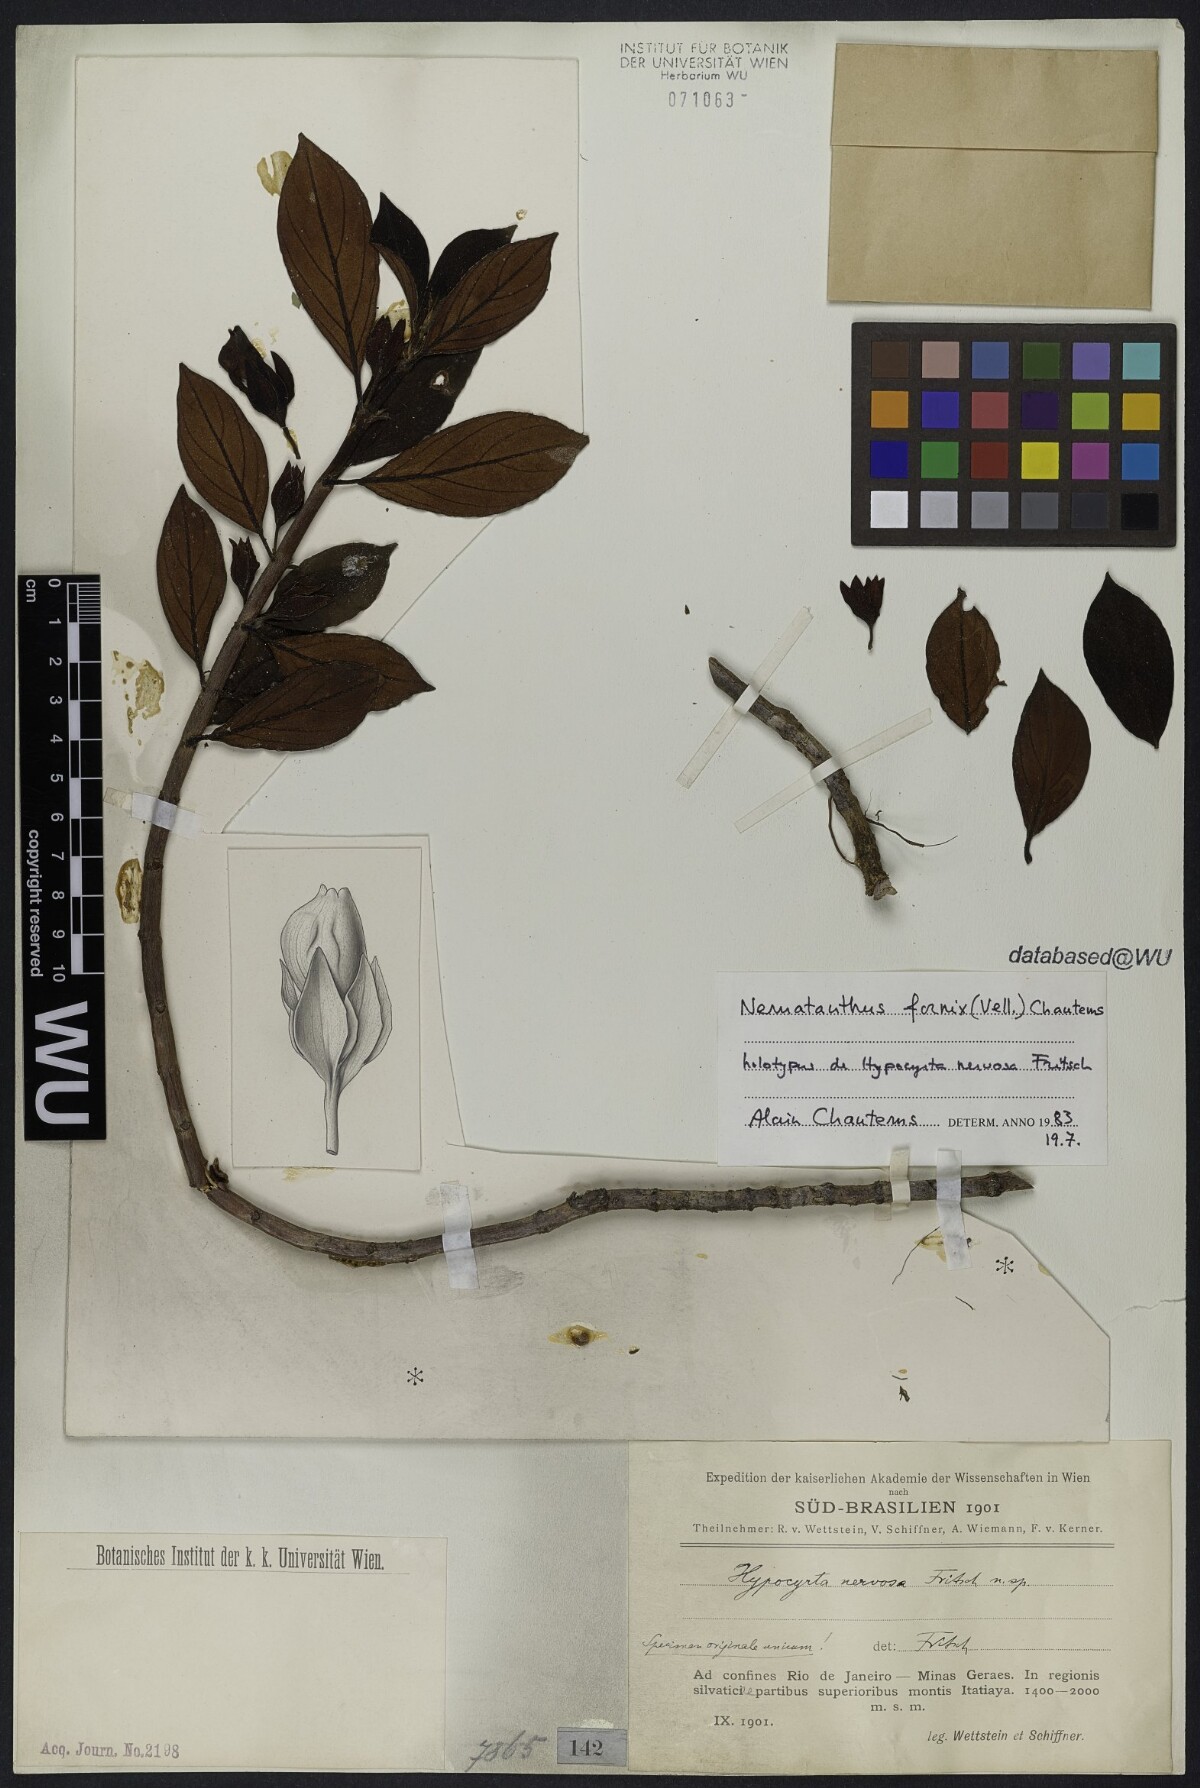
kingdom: Plantae
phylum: Tracheophyta
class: Magnoliopsida
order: Lamiales
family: Gesneriaceae
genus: Nematanthus
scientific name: Nematanthus fornix
